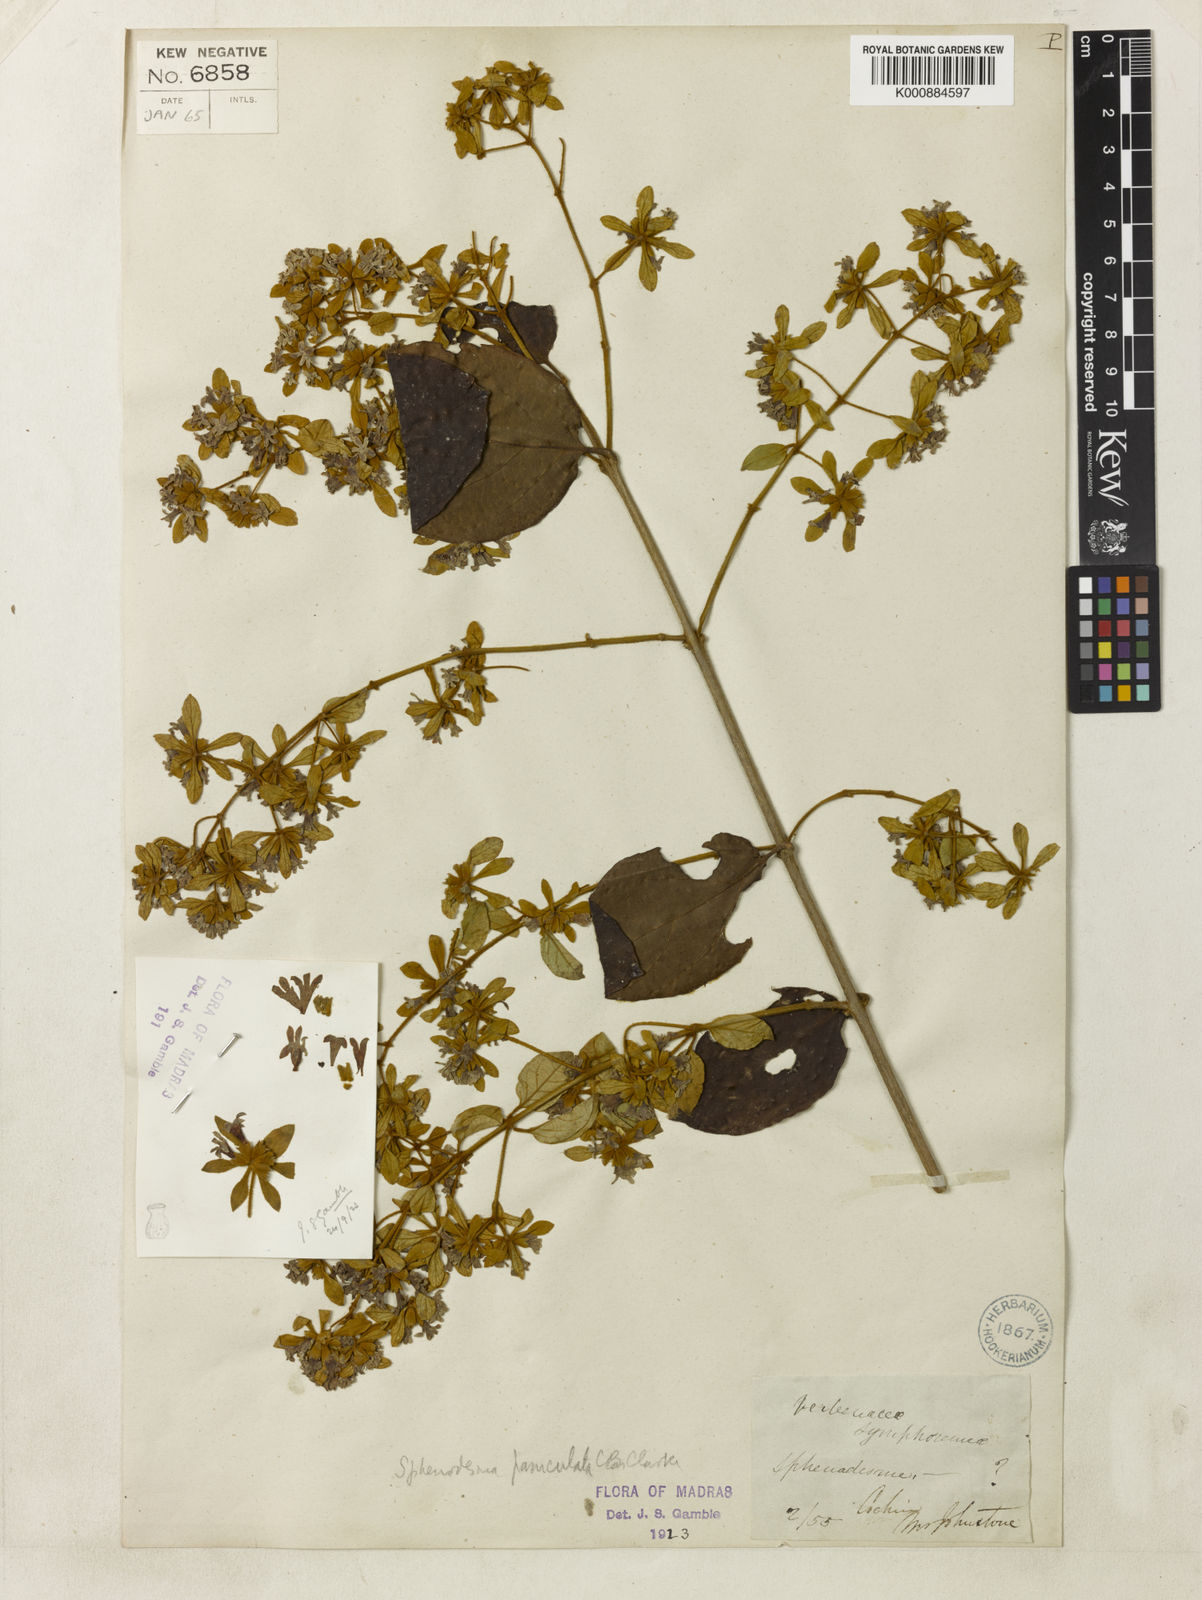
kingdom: Plantae
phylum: Tracheophyta
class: Magnoliopsida
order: Lamiales
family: Lamiaceae
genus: Sphenodesme
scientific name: Sphenodesme involucrata
